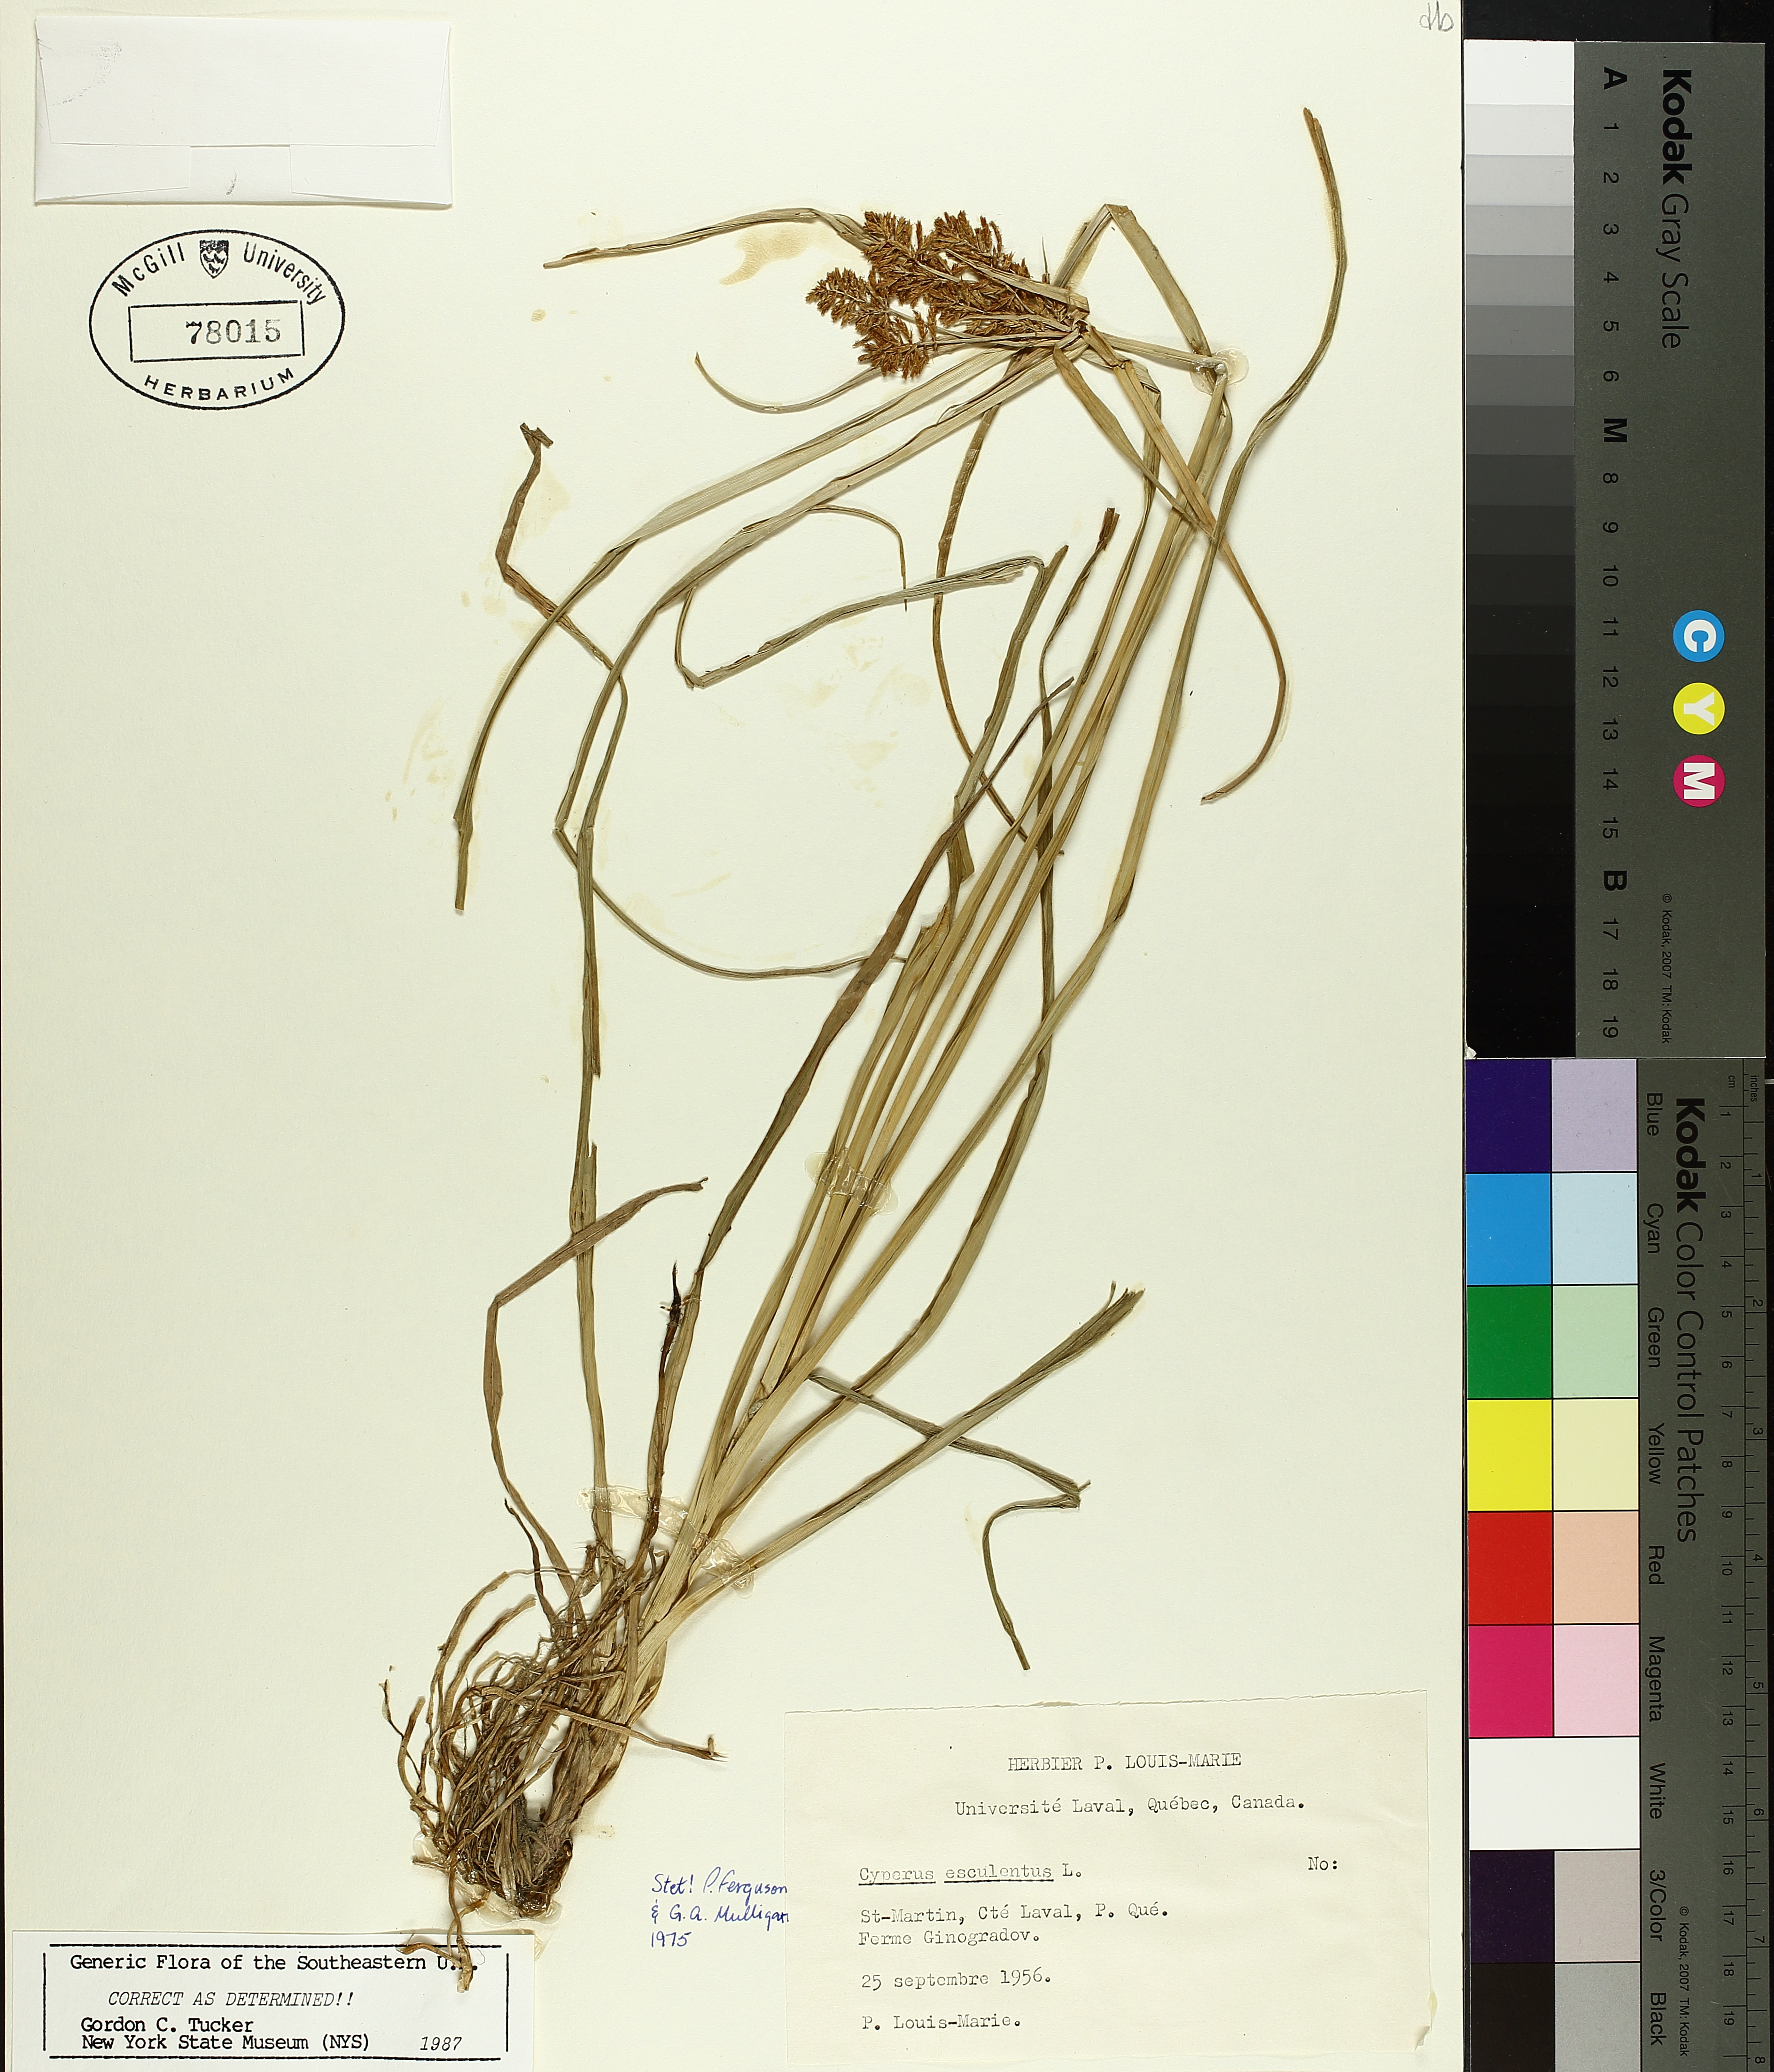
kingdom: Plantae
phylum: Tracheophyta
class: Liliopsida
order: Poales
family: Cyperaceae
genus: Cyperus
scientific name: Cyperus esculentus
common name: Yellow nutsedge
